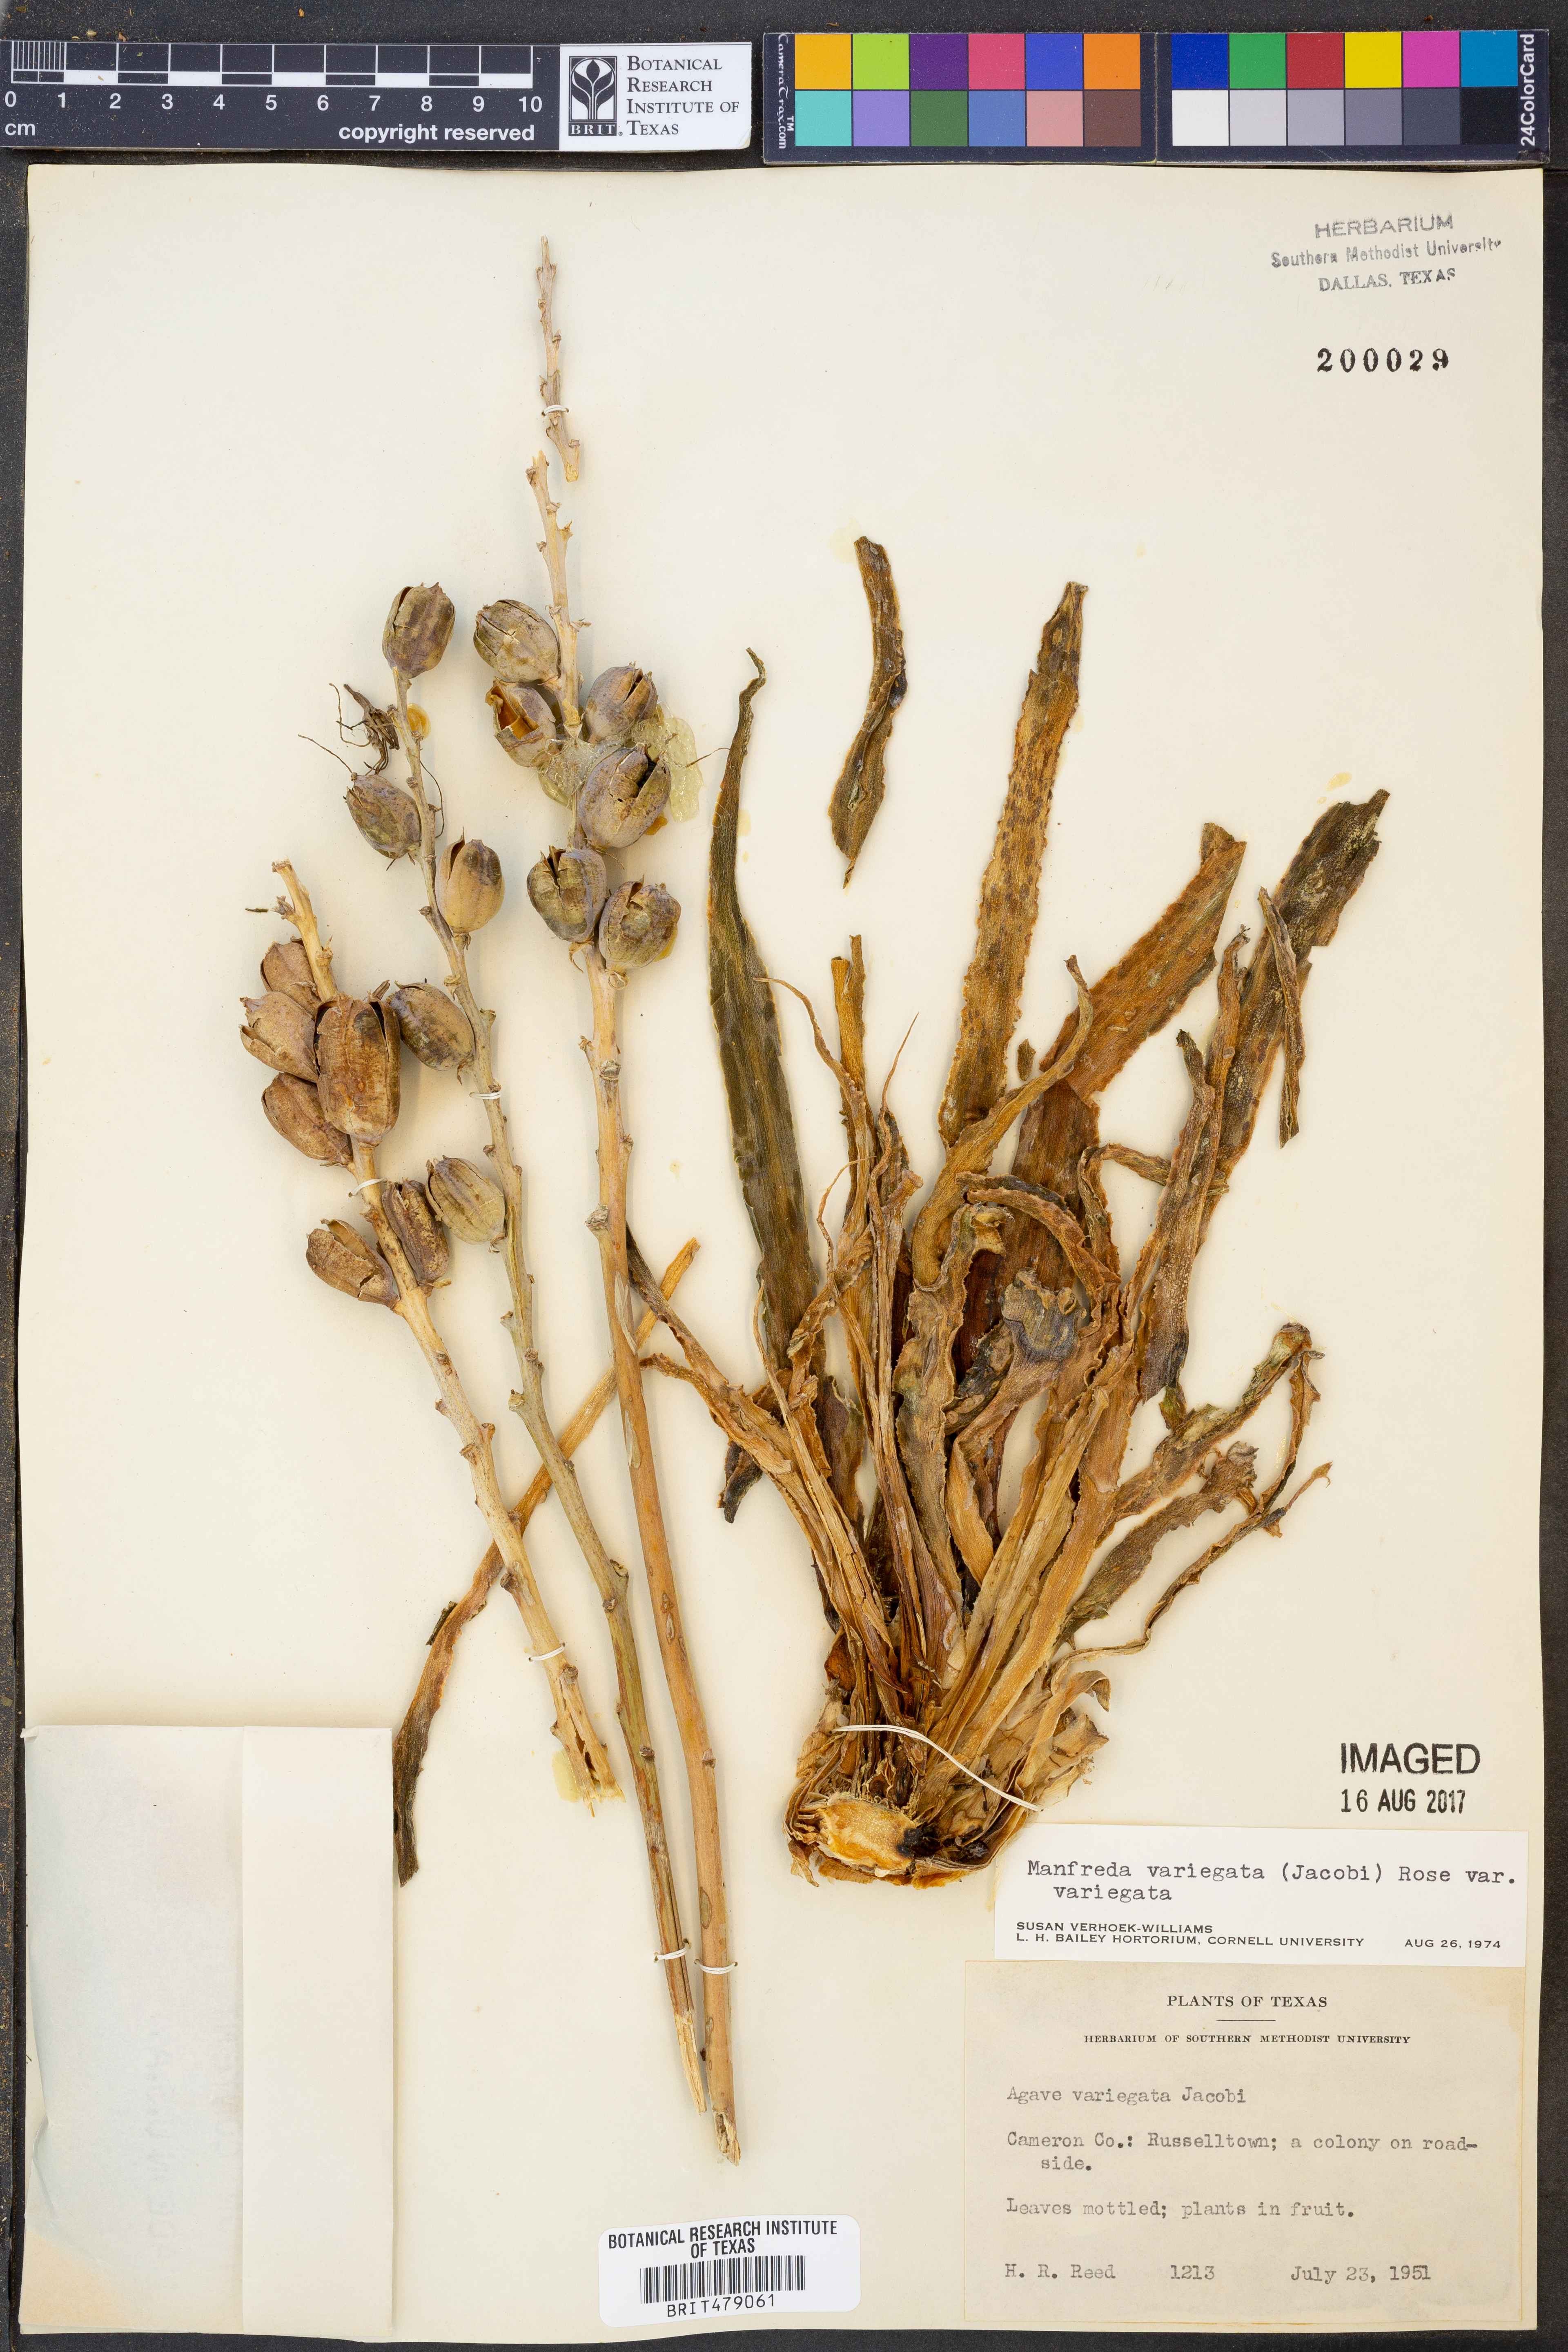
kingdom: Plantae
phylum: Tracheophyta
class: Liliopsida
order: Asparagales
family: Asparagaceae
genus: Agave
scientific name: Agave variegata
